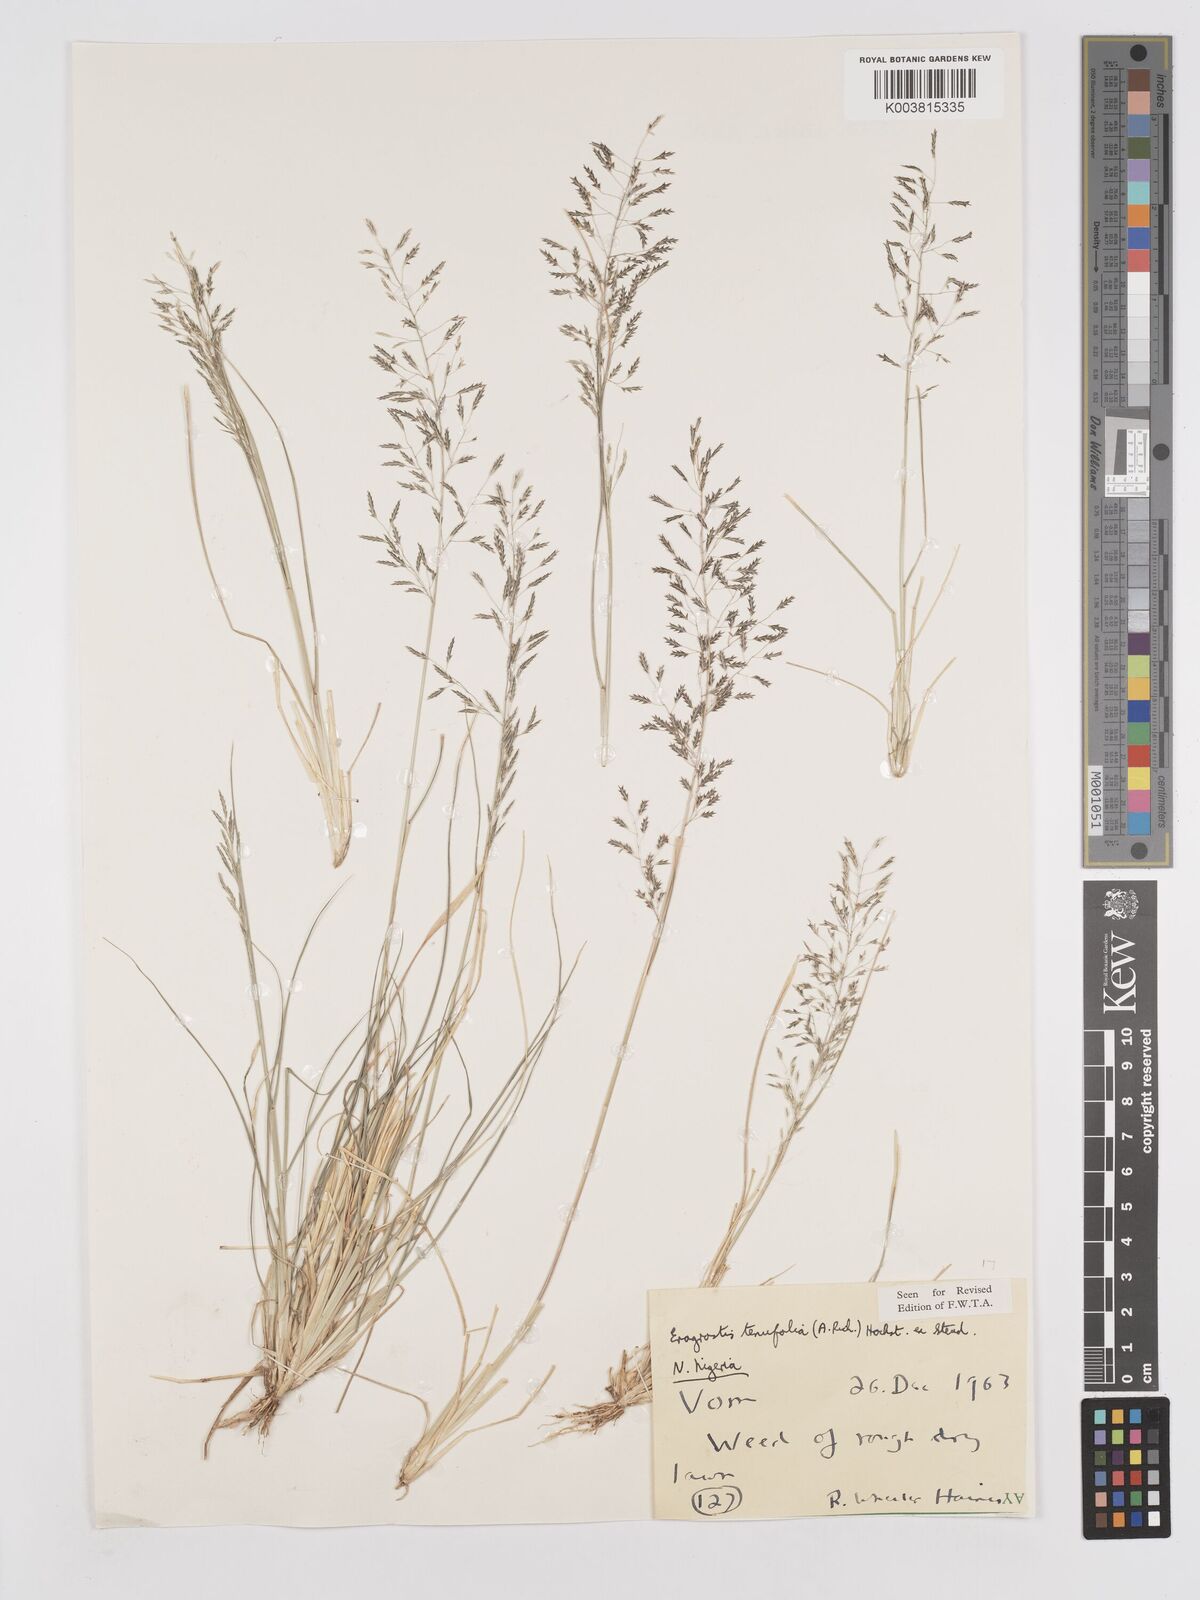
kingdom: Plantae
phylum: Tracheophyta
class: Liliopsida
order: Poales
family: Poaceae
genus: Eragrostis
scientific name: Eragrostis tenuifolia
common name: Elastic grass
